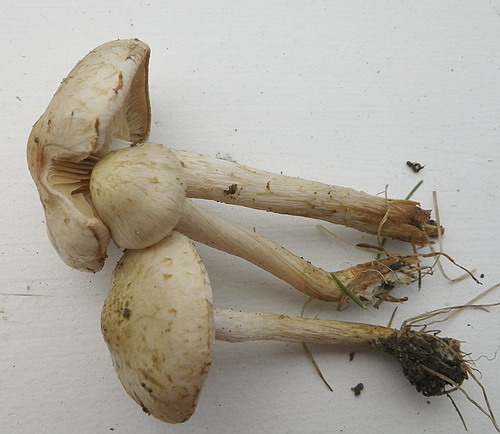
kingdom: Fungi
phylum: Basidiomycota
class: Agaricomycetes
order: Agaricales
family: Strophariaceae
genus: Pholiota
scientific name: Pholiota gummosa
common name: grøngul skælhat
